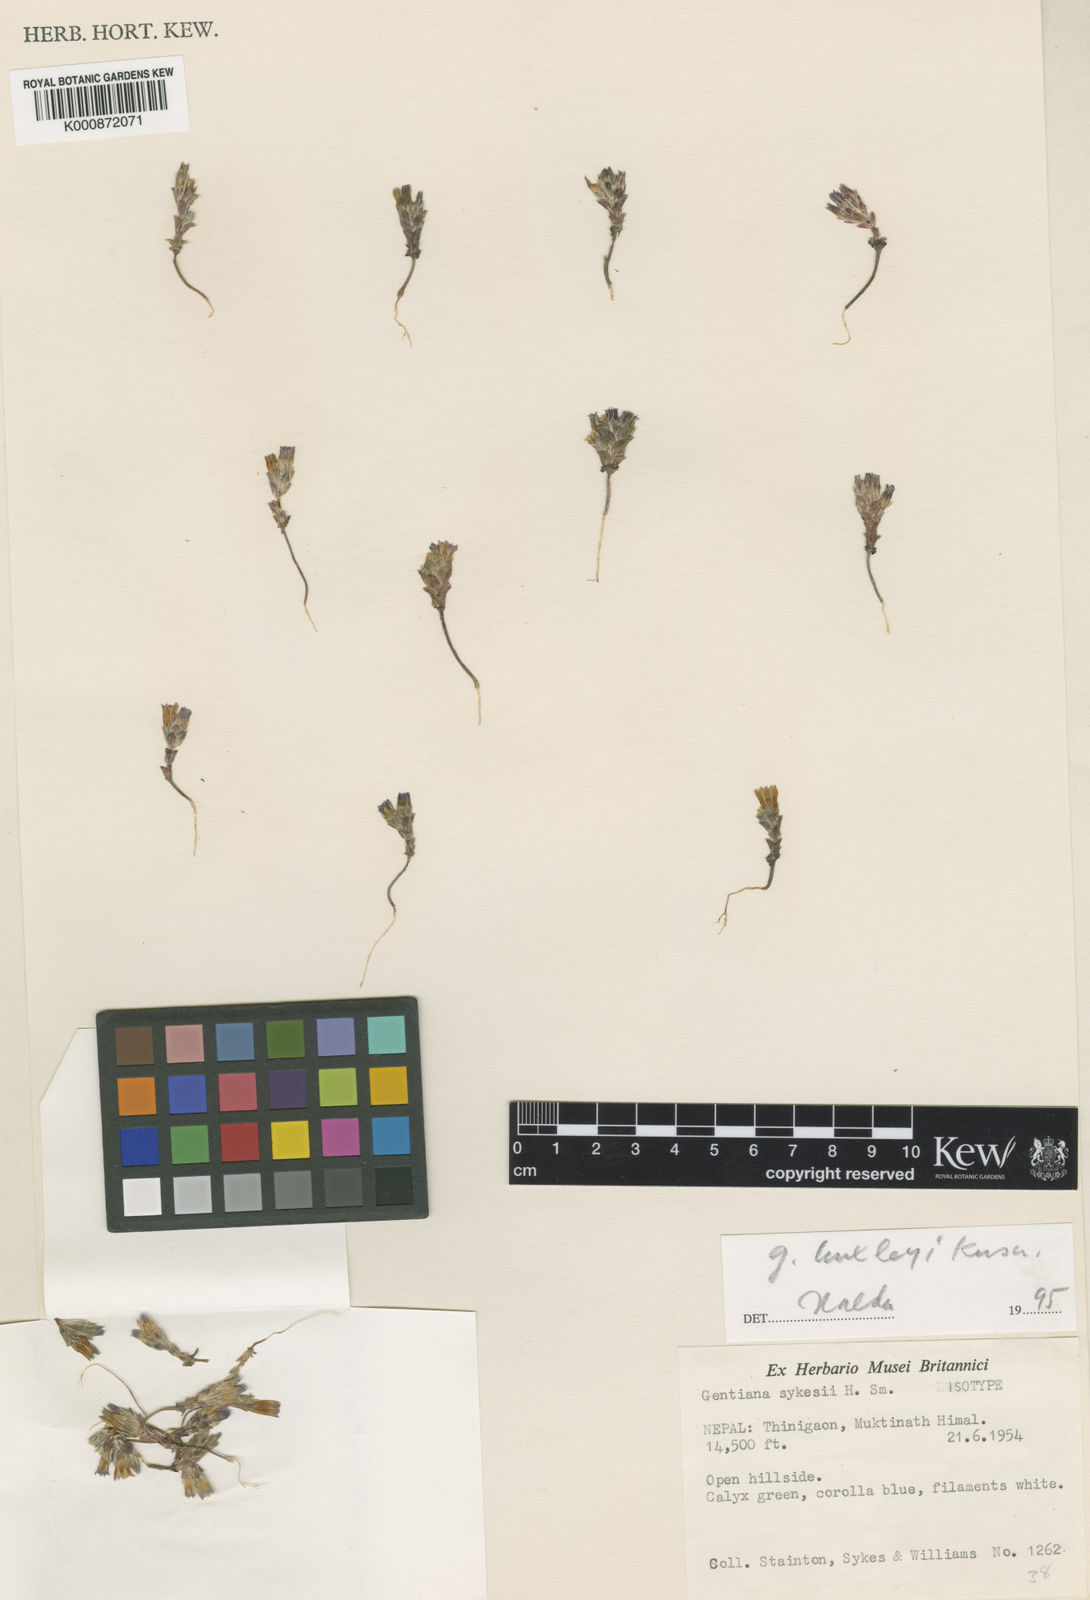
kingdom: Plantae
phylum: Tracheophyta
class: Magnoliopsida
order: Gentianales
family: Gentianaceae
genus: Gentiana
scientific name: Gentiana huxleyi
